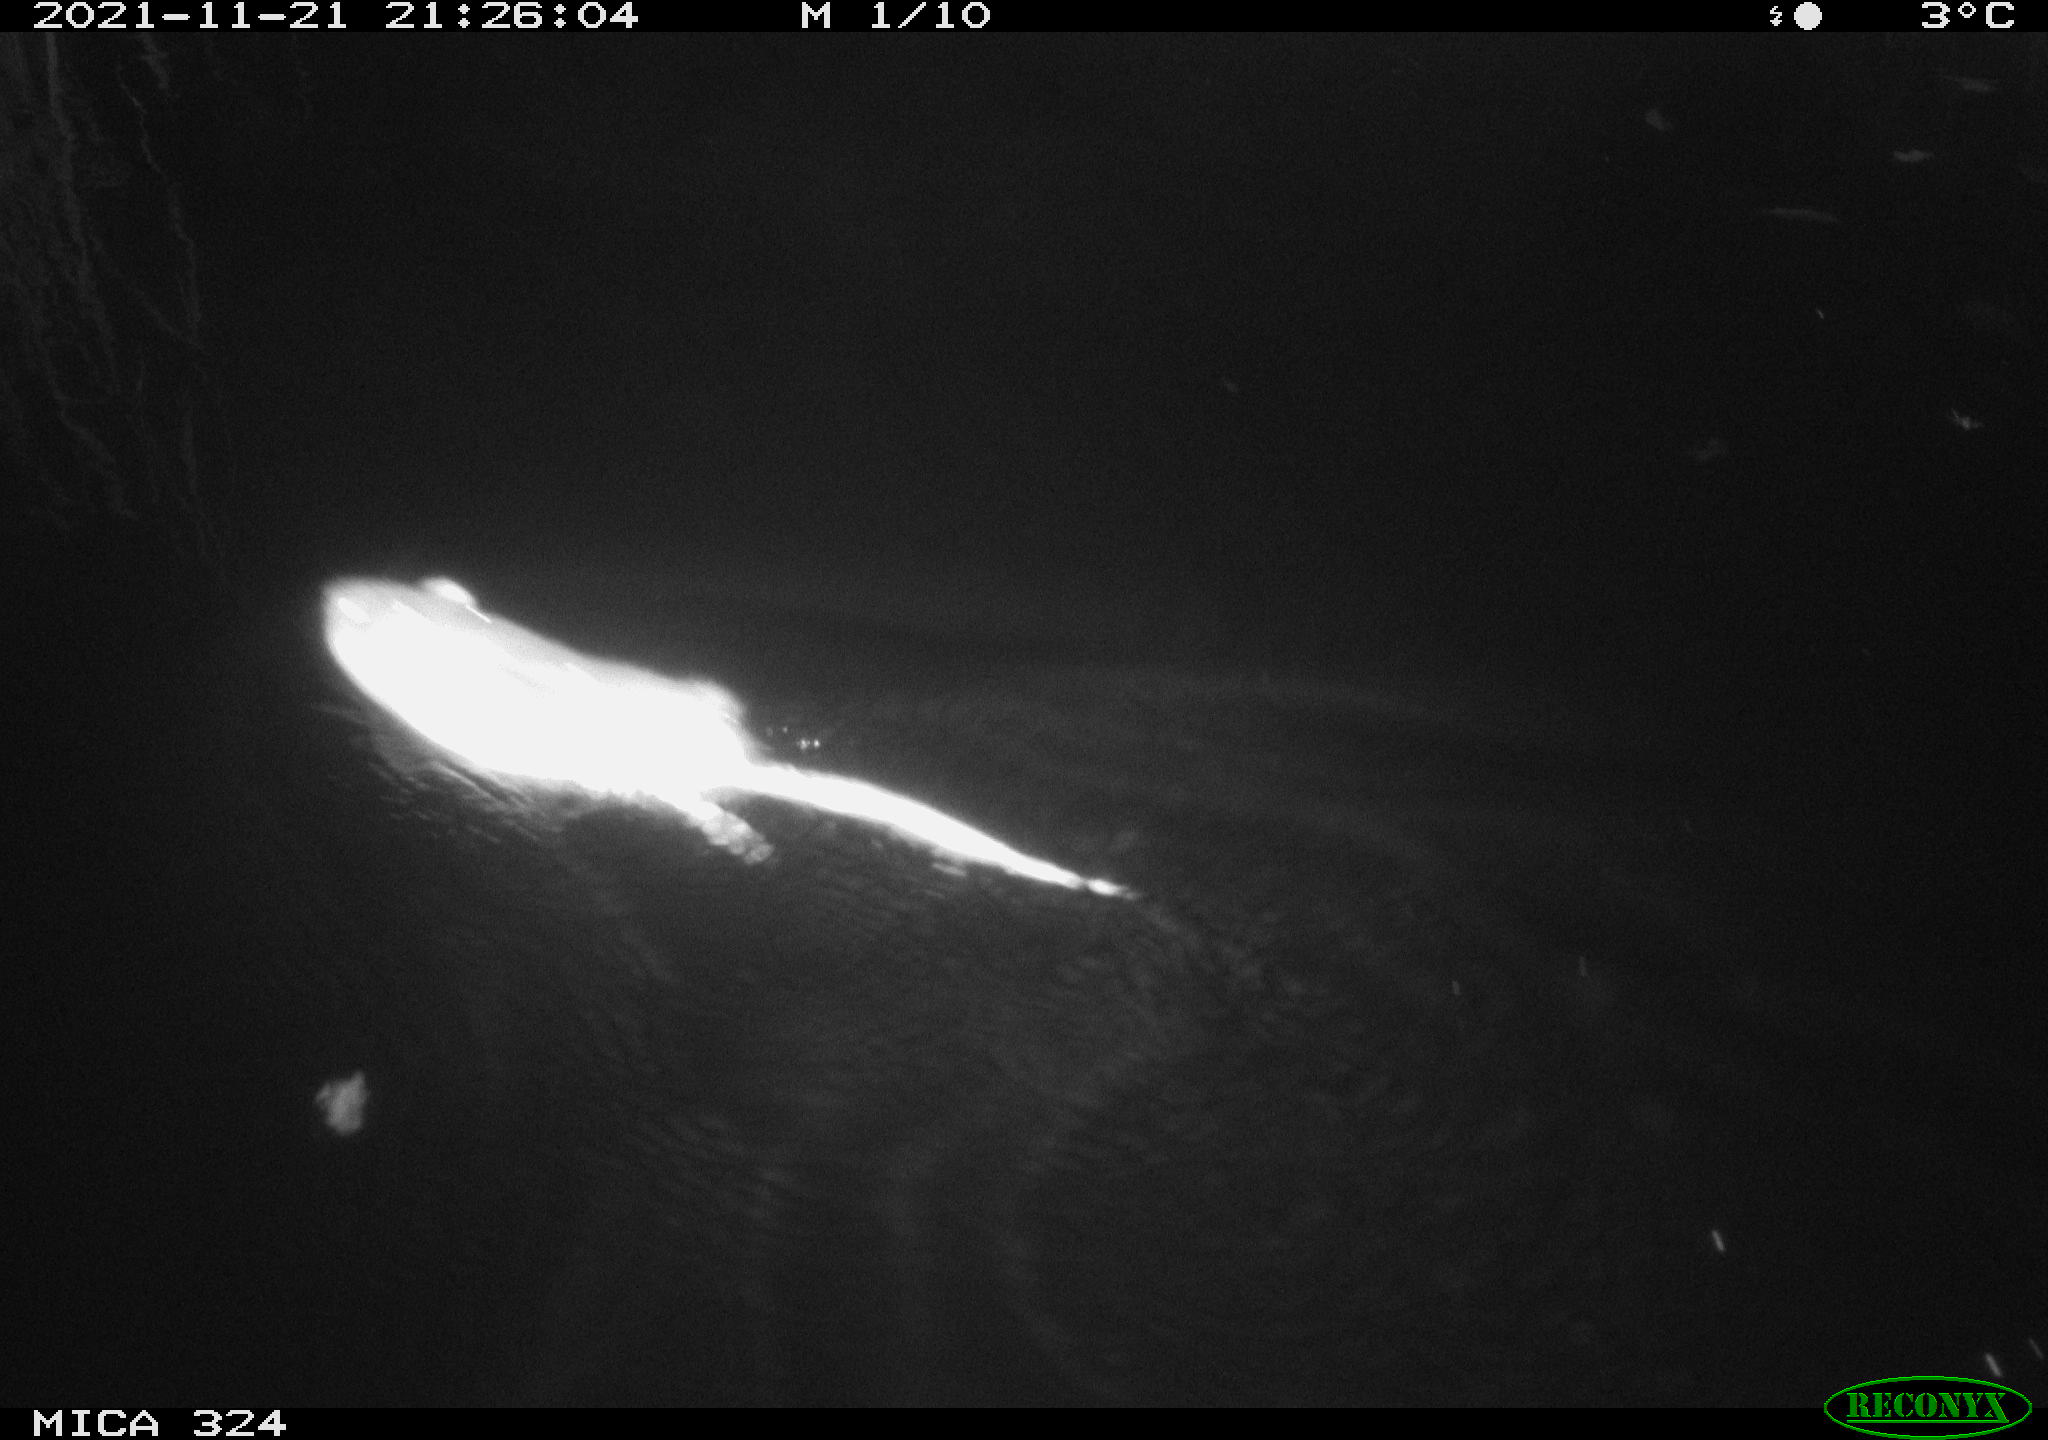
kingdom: Animalia
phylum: Chordata
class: Mammalia
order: Rodentia
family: Cricetidae
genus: Ondatra
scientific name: Ondatra zibethicus
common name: Muskrat
